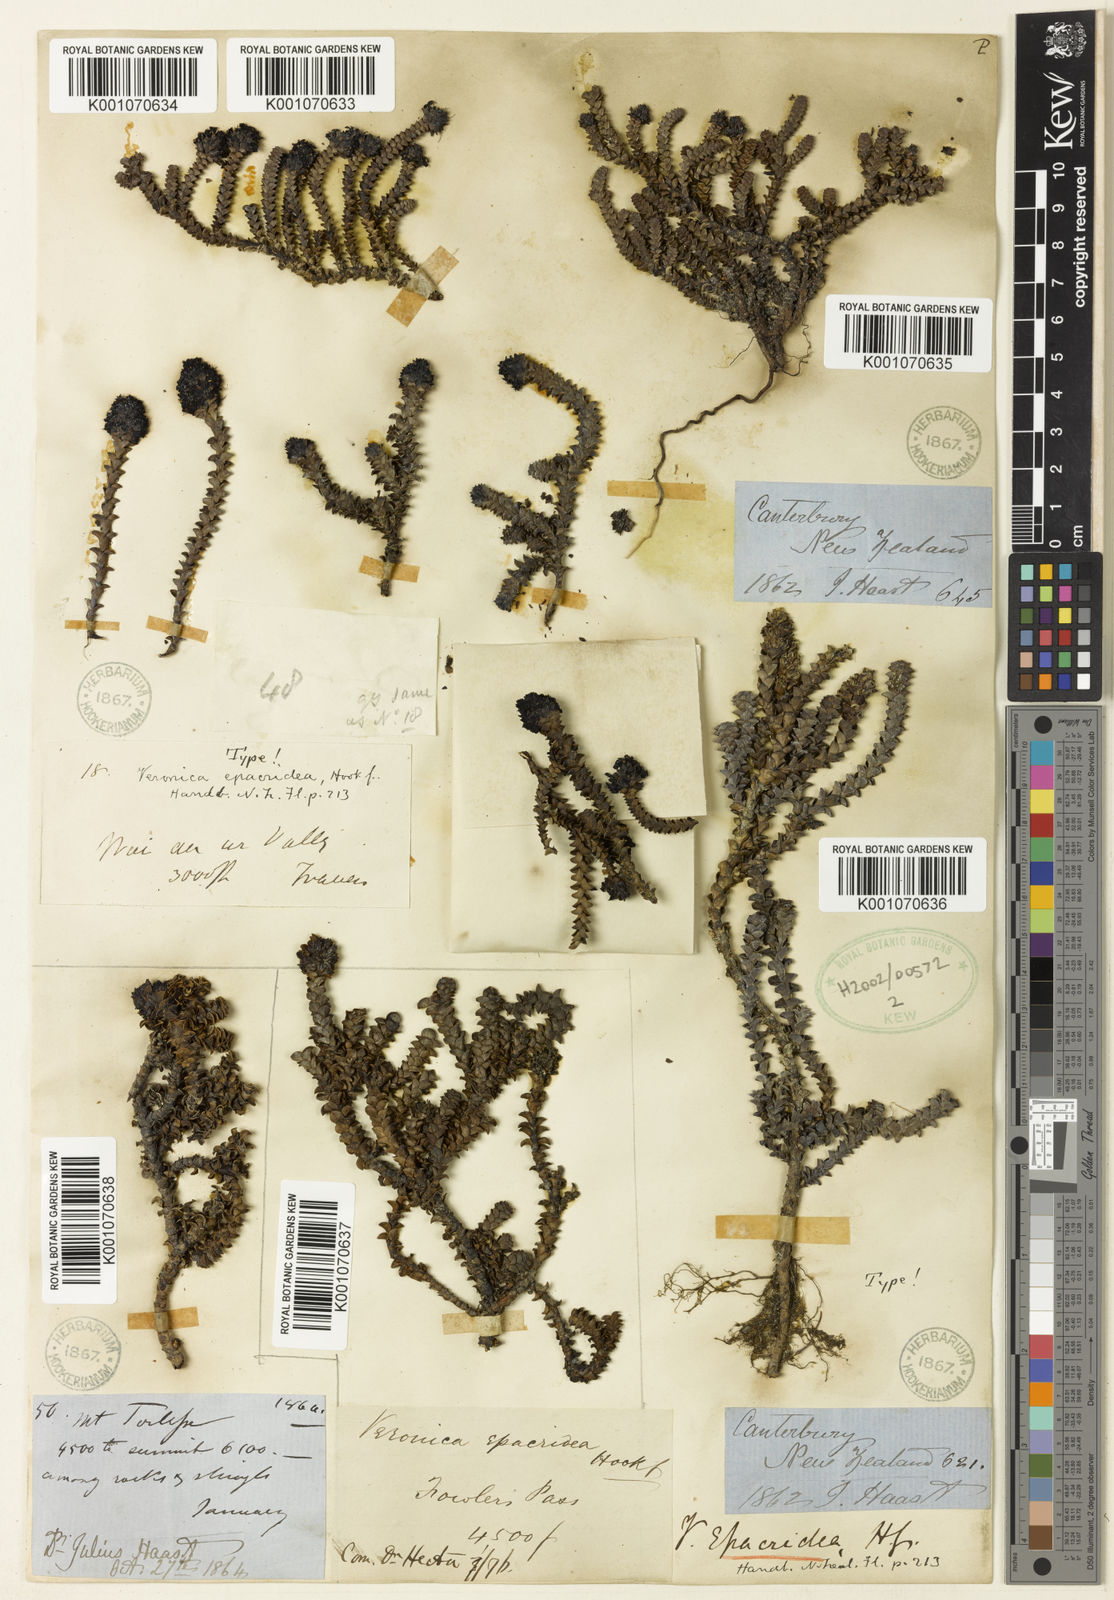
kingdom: Plantae
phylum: Tracheophyta
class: Magnoliopsida
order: Lamiales
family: Plantaginaceae
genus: Veronica
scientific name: Veronica epacridea
